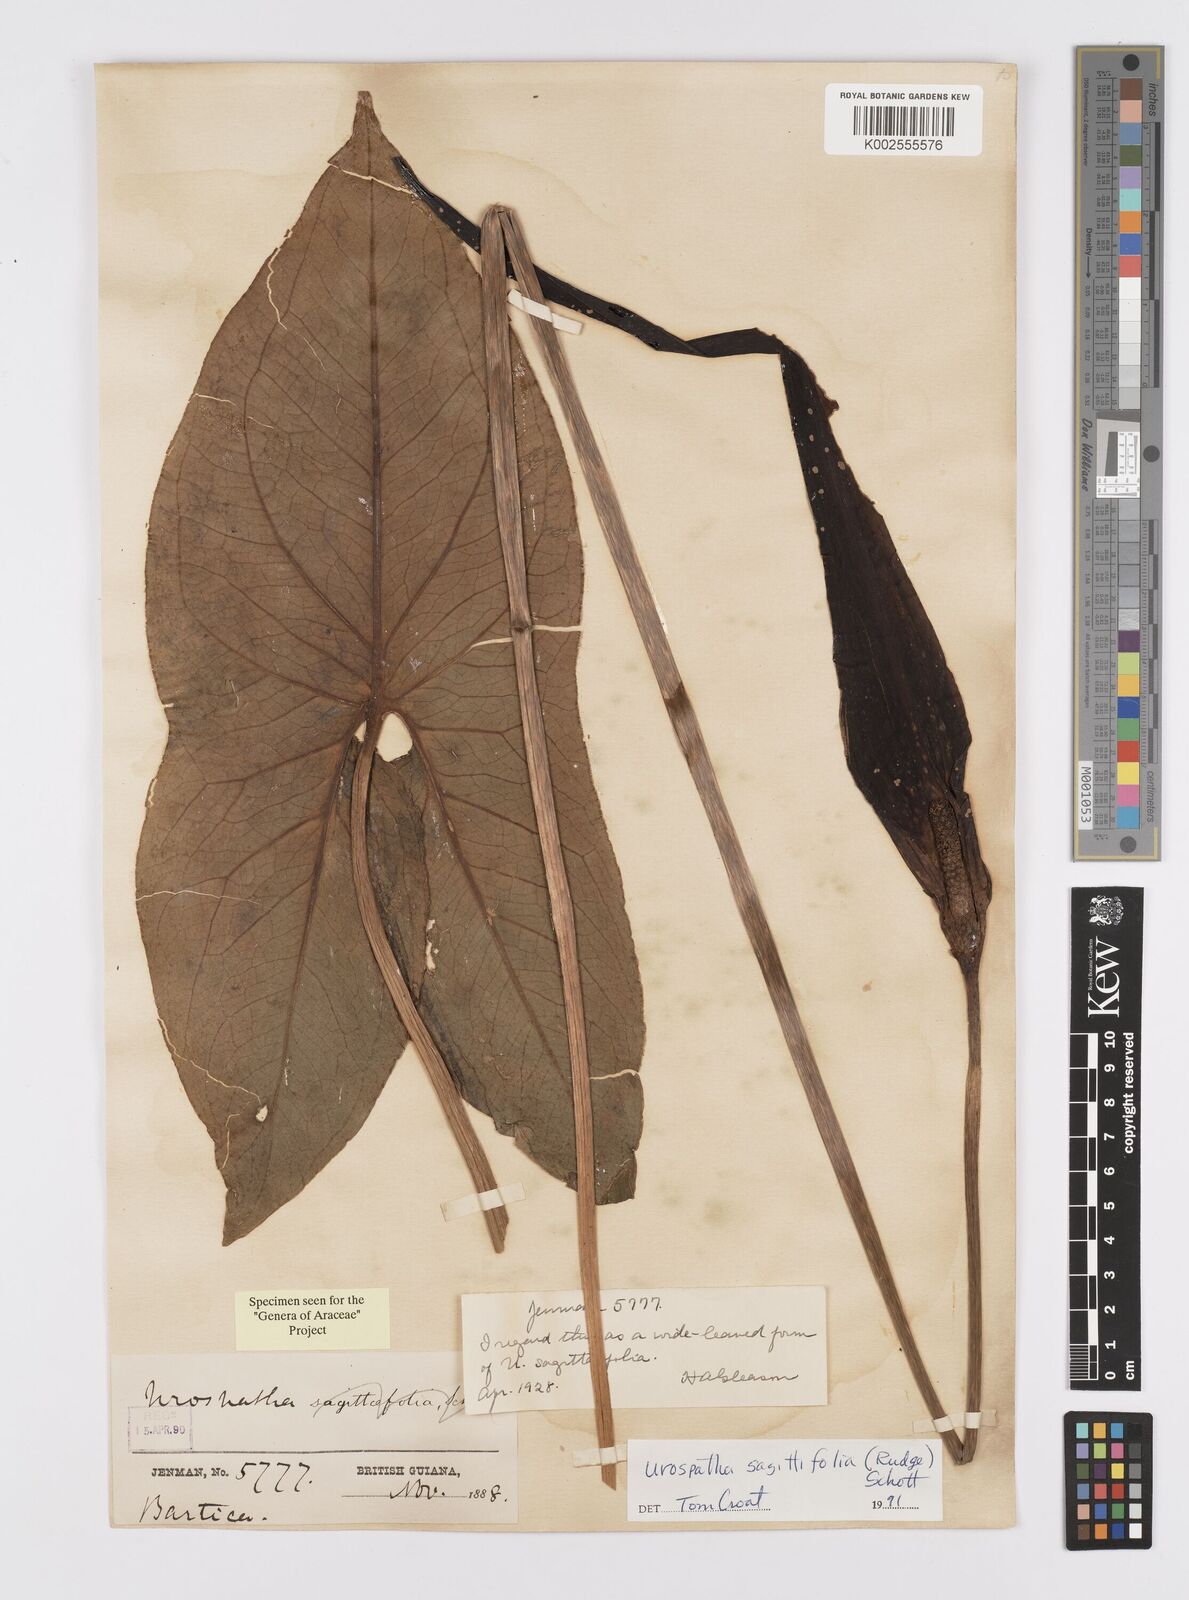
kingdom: Plantae
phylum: Tracheophyta
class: Liliopsida
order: Alismatales
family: Araceae
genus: Urospatha
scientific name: Urospatha sagittifolia
